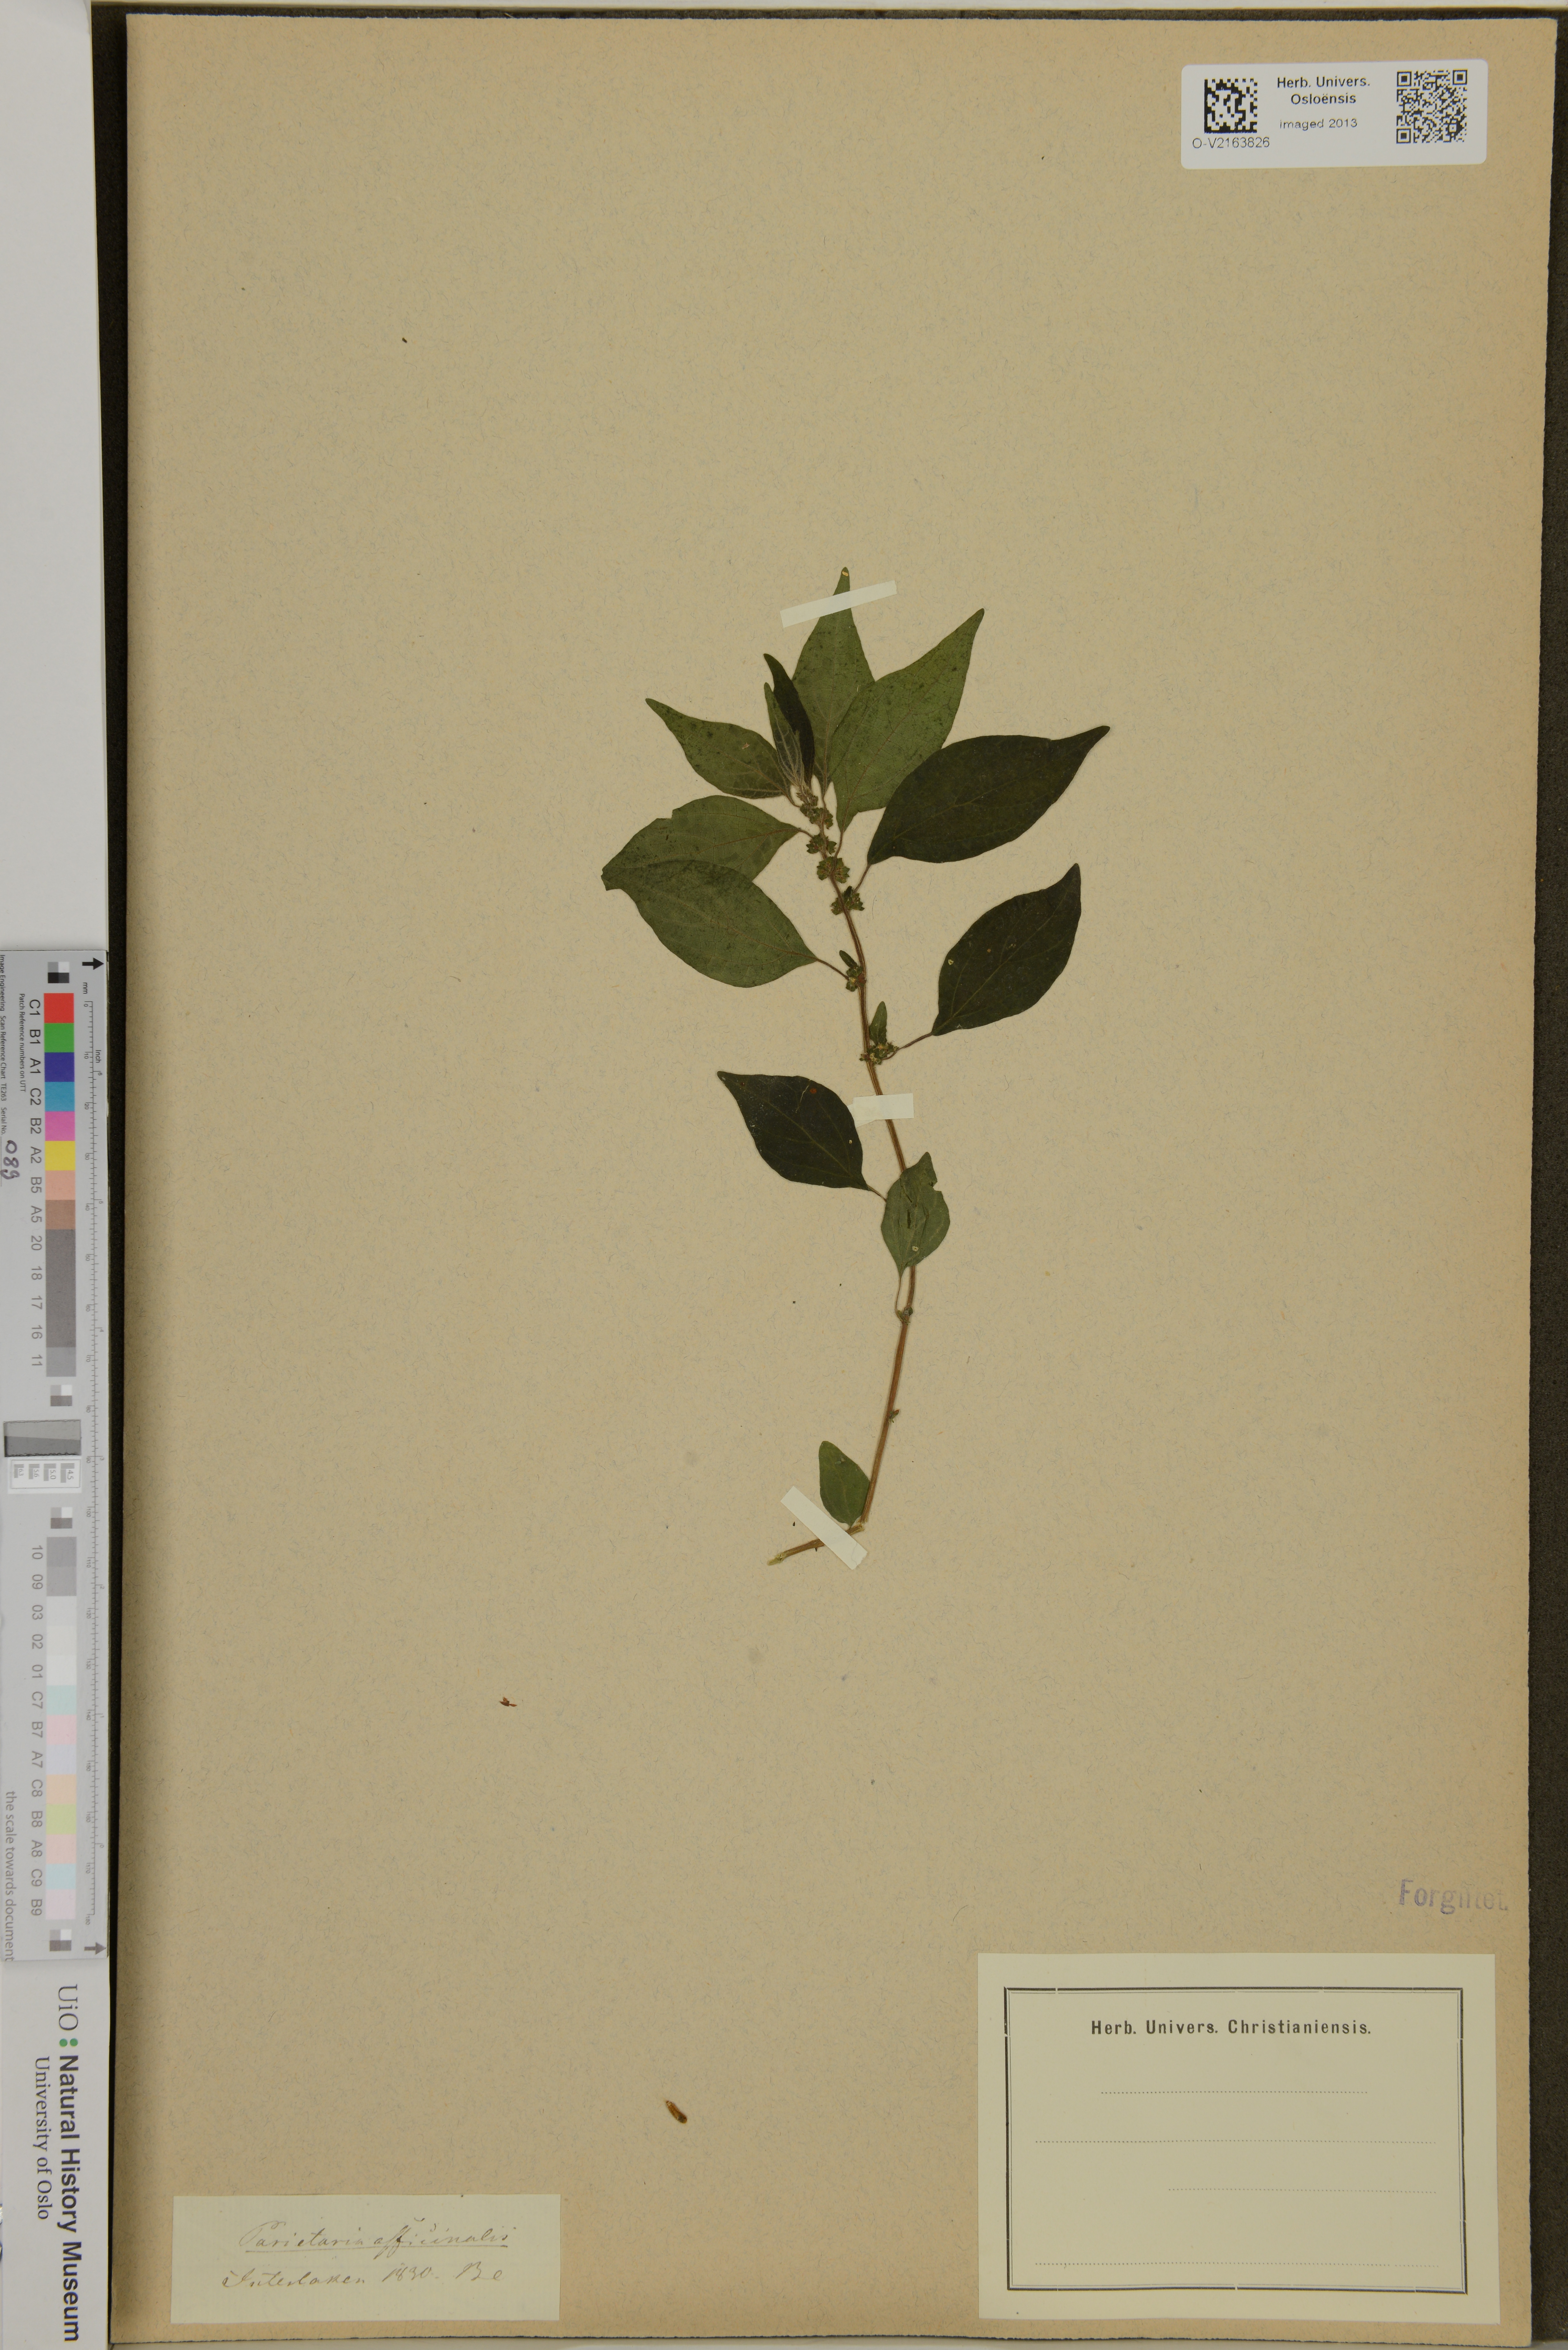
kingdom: Plantae
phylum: Tracheophyta
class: Magnoliopsida
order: Rosales
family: Urticaceae
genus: Parietaria
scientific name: Parietaria officinalis
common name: Eastern pellitory-of-the-wall
